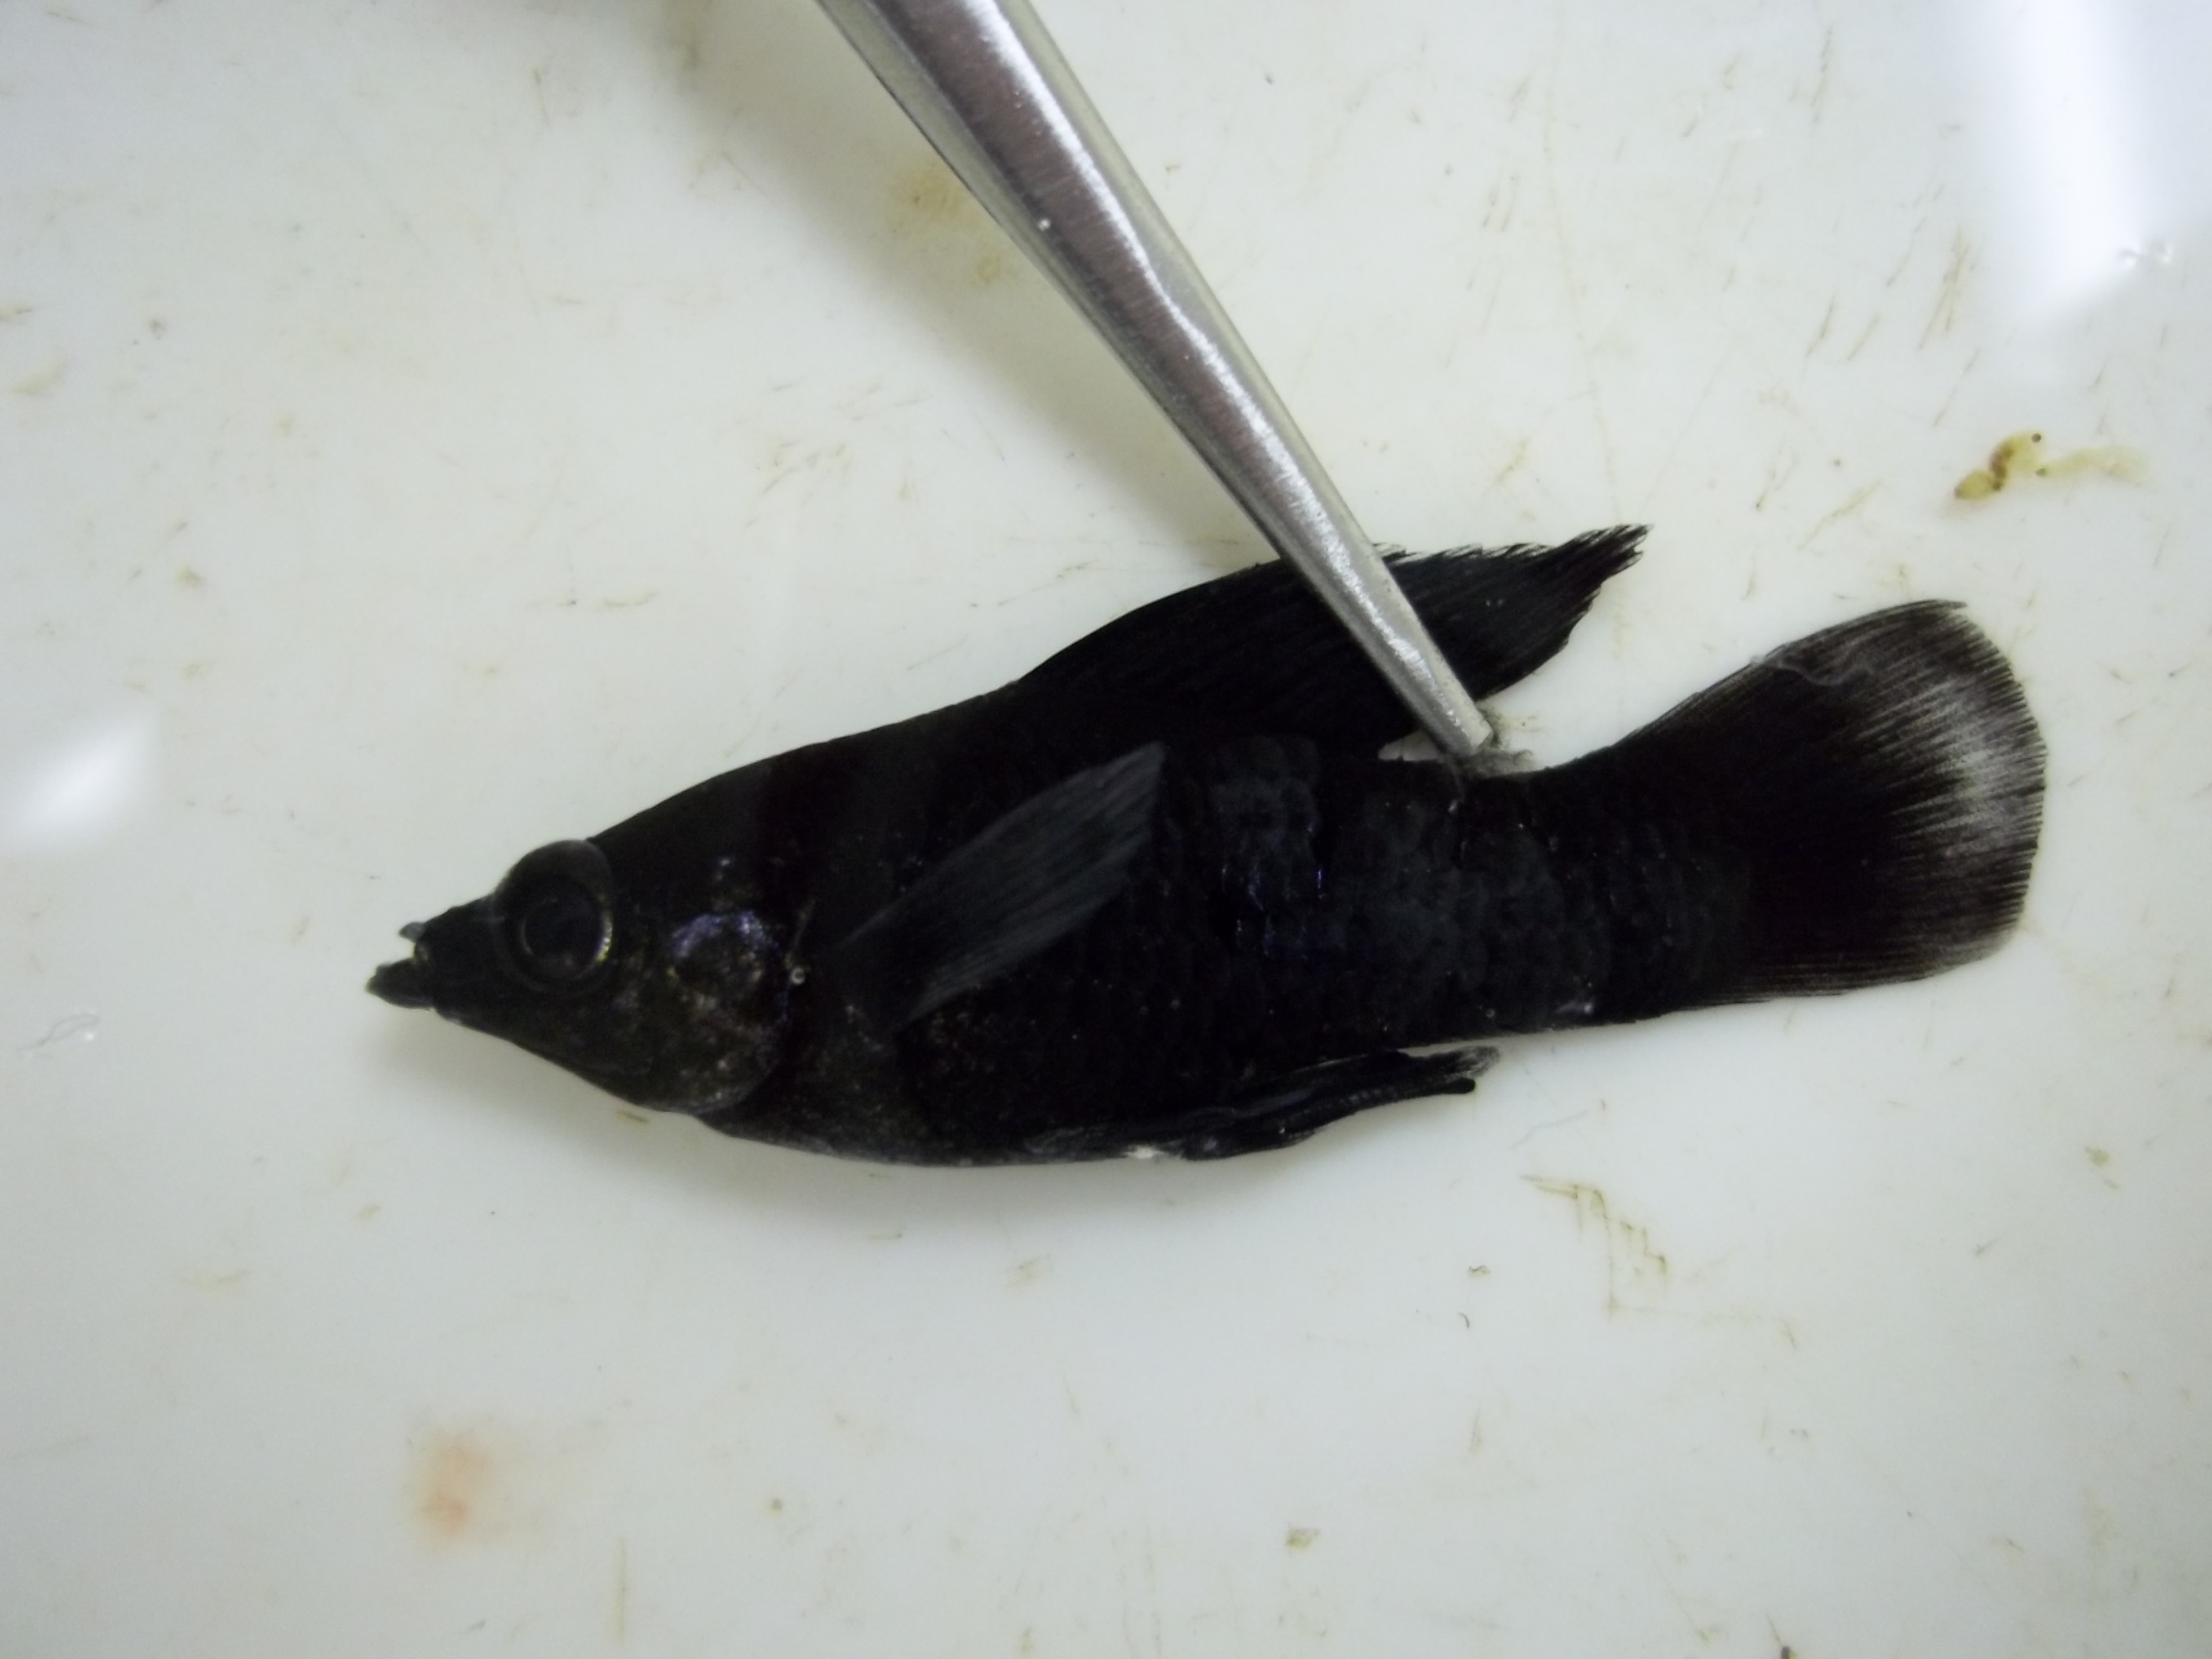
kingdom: Animalia
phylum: Chordata
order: Cyprinodontiformes
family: Poeciliidae
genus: Poecilia
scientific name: Poecilia sphenops
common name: Molly
